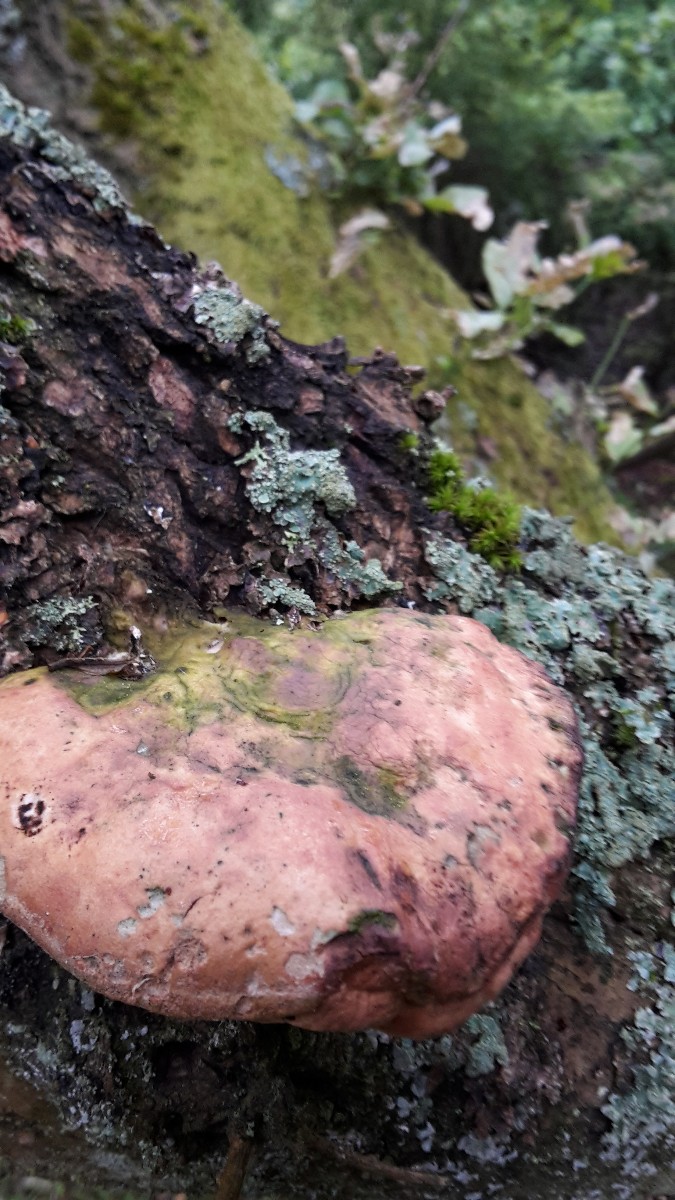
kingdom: Fungi
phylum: Basidiomycota
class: Agaricomycetes
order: Polyporales
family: Phanerochaetaceae
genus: Hapalopilus
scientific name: Hapalopilus rutilans
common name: rødlig okkerporesvamp
